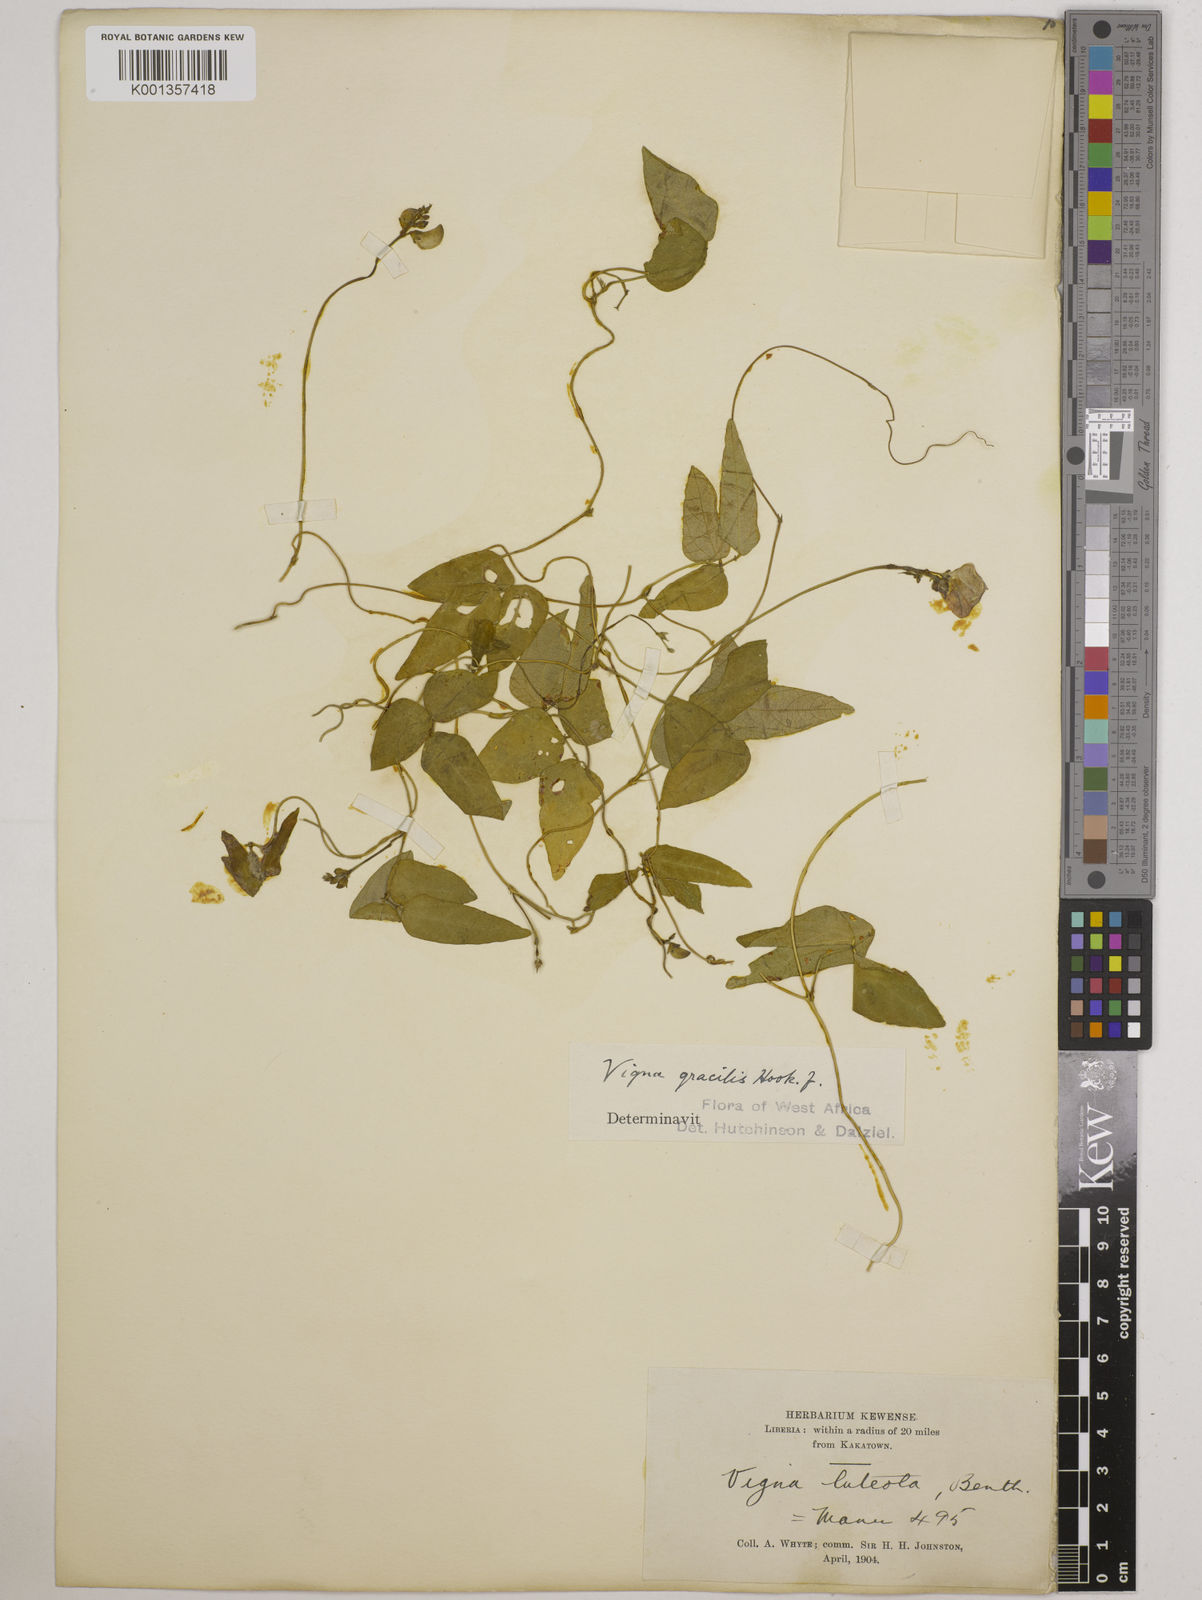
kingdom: Plantae
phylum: Tracheophyta
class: Magnoliopsida
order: Fabales
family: Fabaceae
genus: Vigna
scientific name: Vigna gracilis
